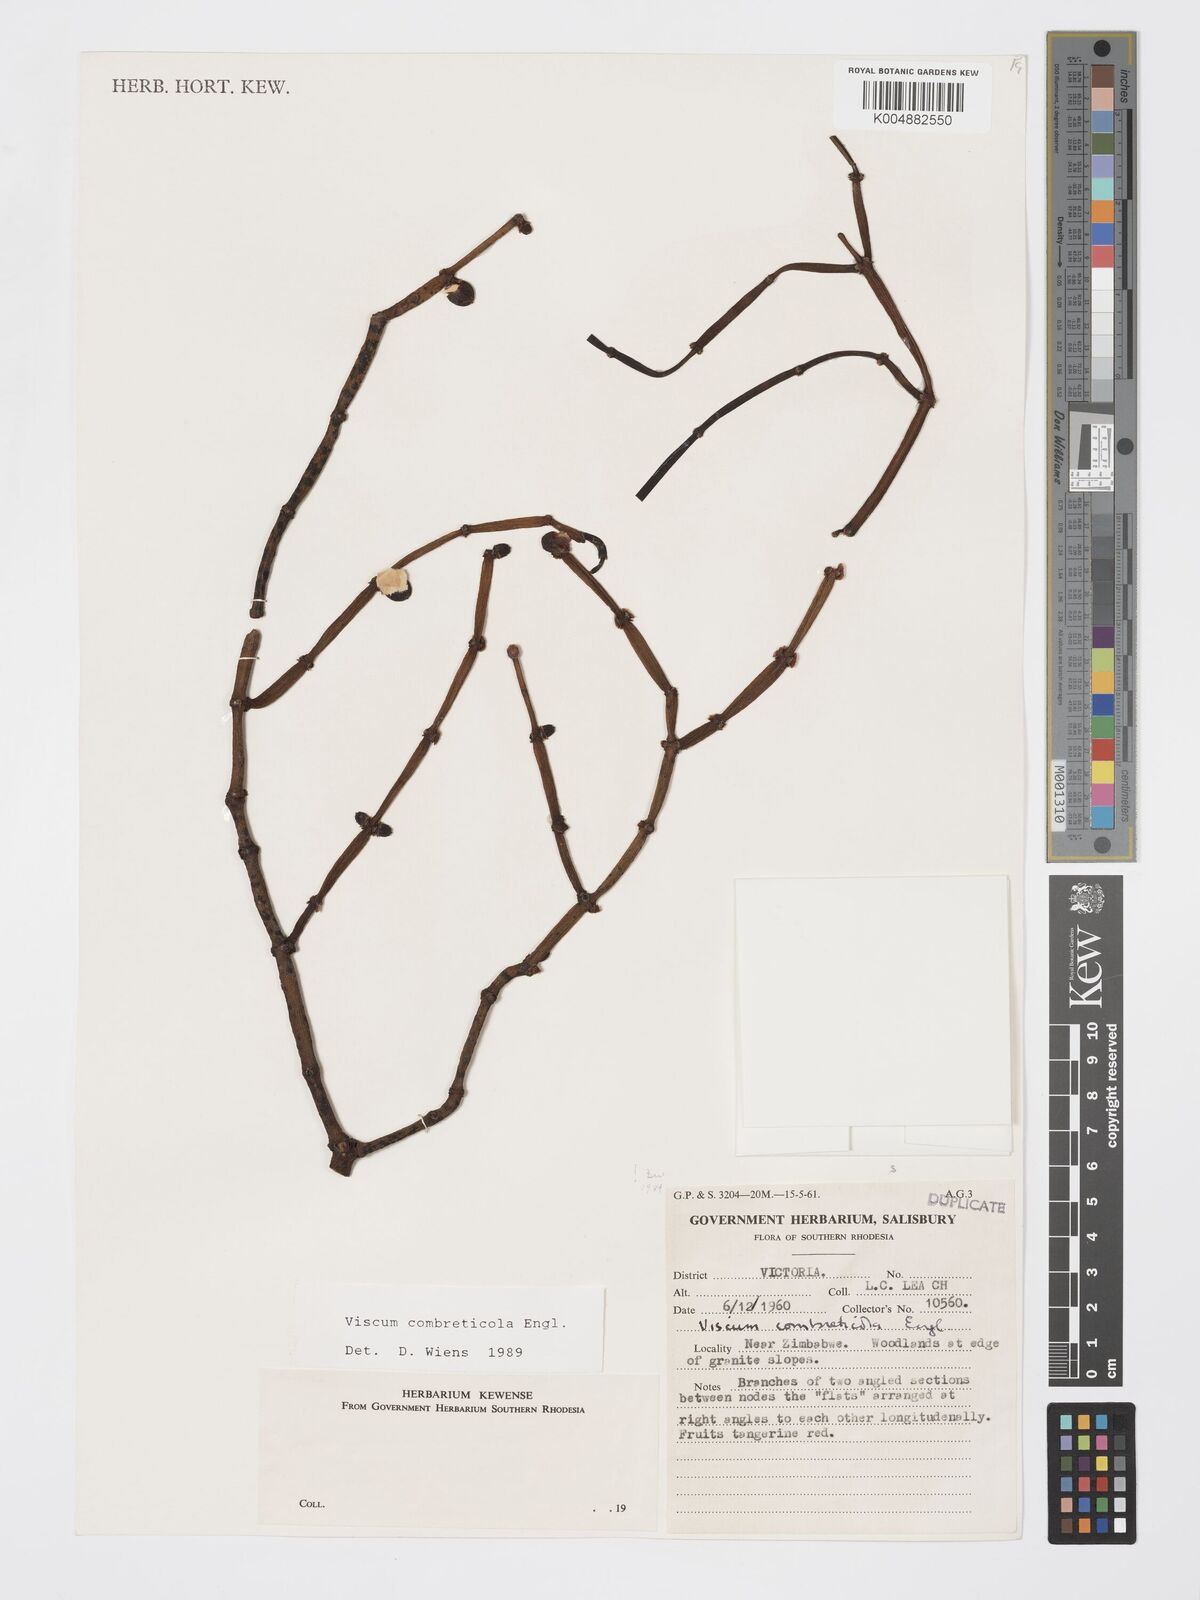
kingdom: Plantae
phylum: Tracheophyta
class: Magnoliopsida
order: Santalales
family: Viscaceae
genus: Viscum
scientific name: Viscum combreticola
